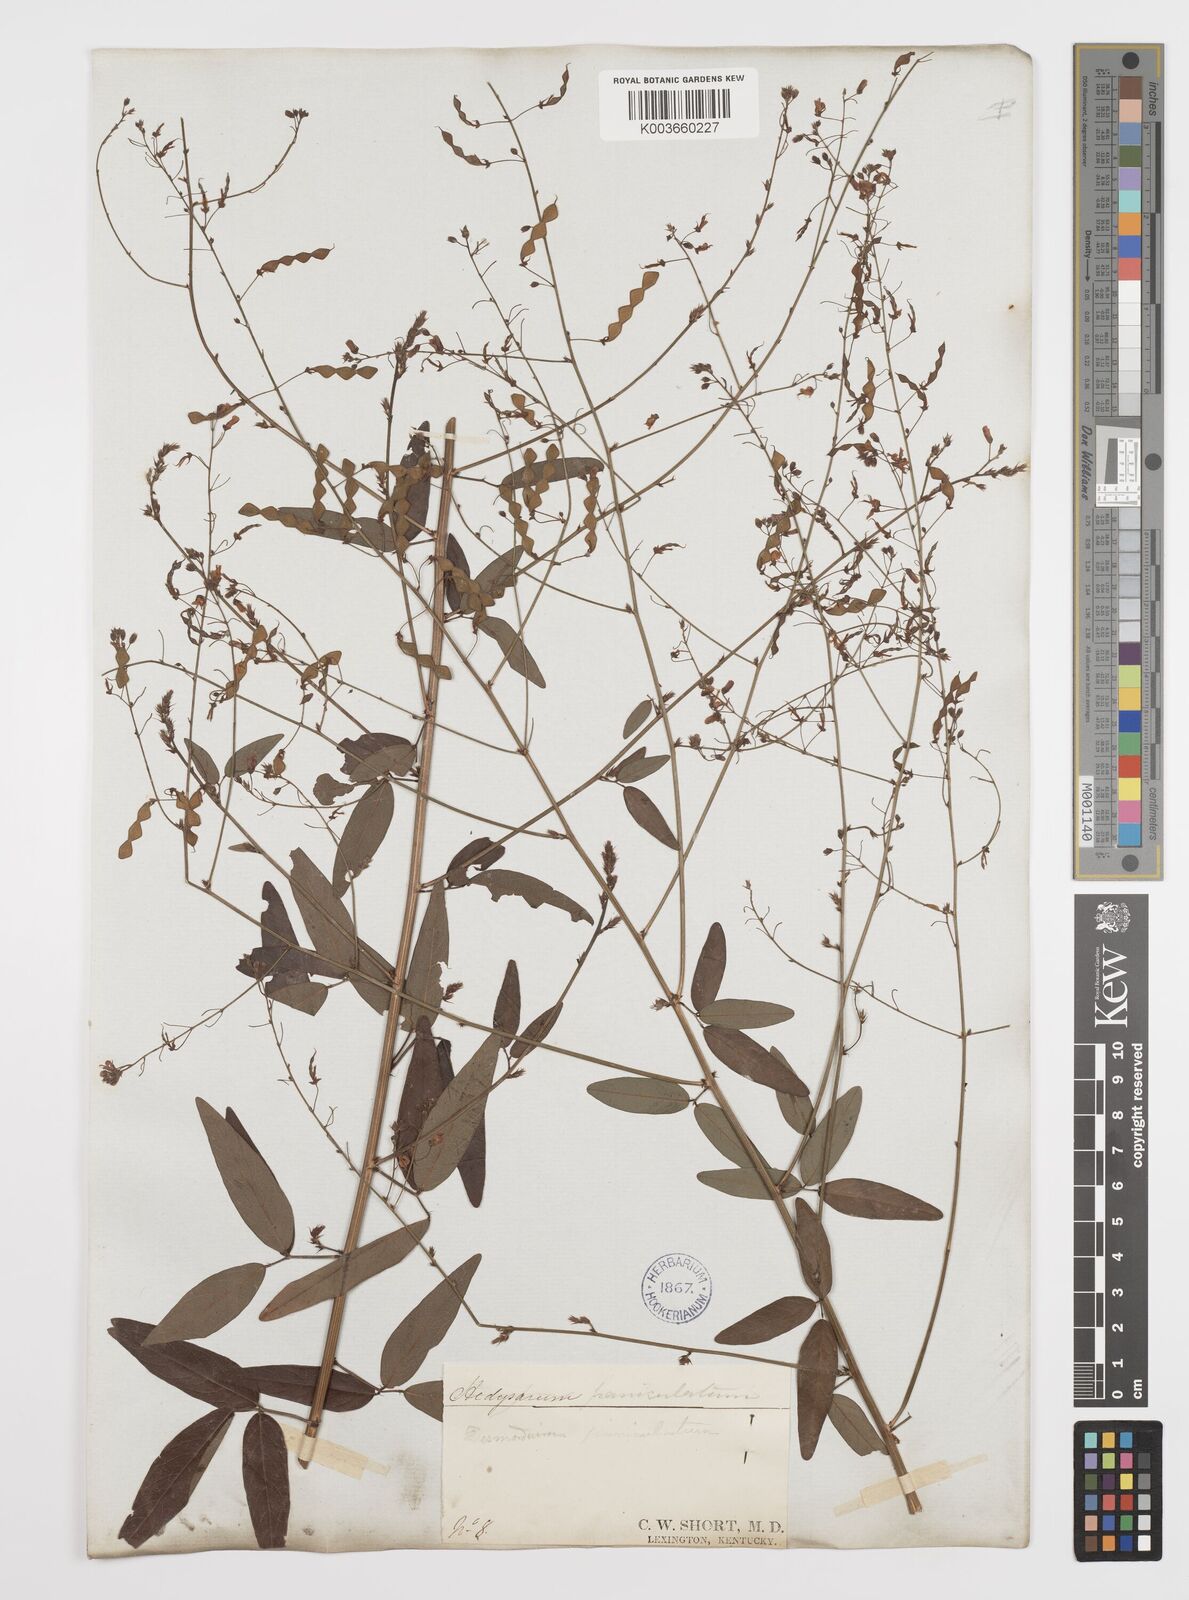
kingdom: Plantae
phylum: Tracheophyta
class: Magnoliopsida
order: Fabales
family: Fabaceae
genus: Desmodium
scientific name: Desmodium paniculatum
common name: Panicled tick-clover
